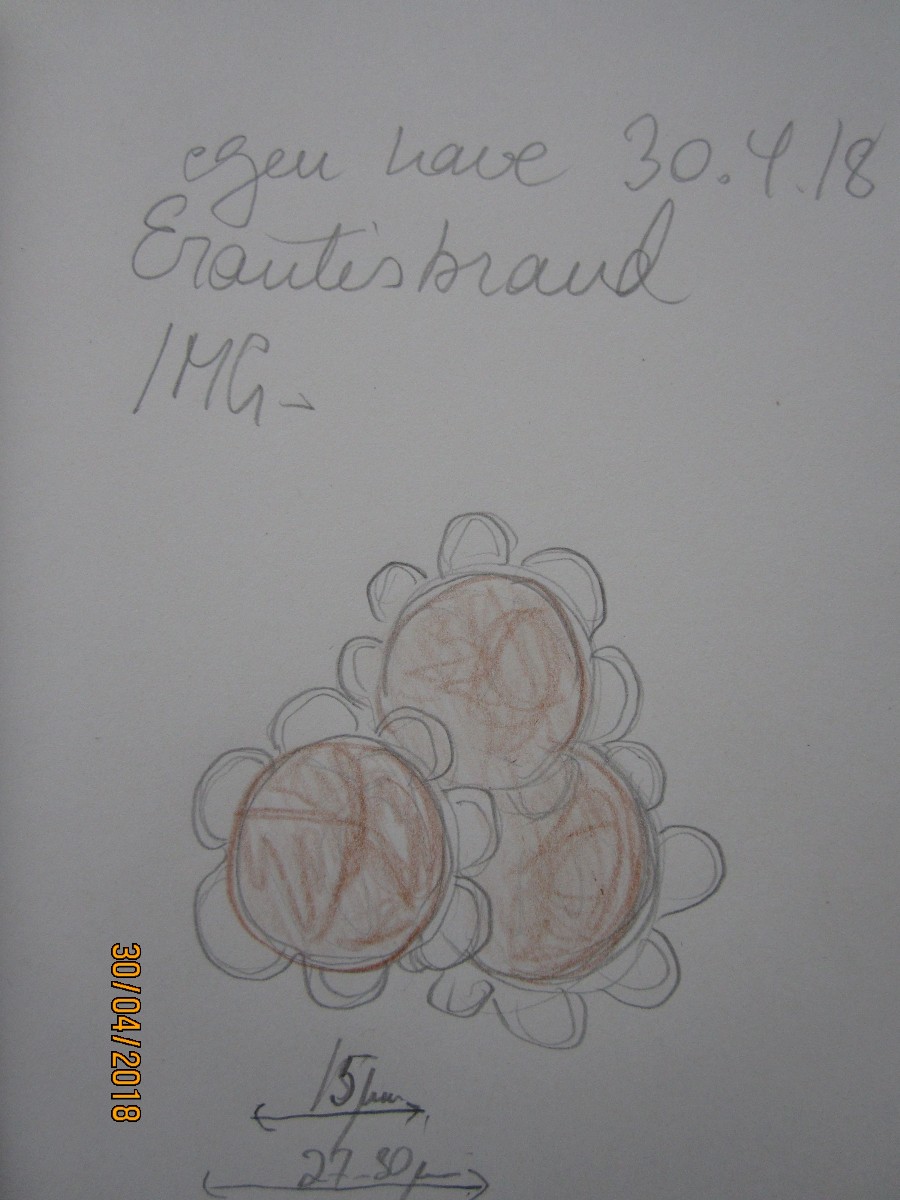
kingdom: Fungi
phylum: Basidiomycota
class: Ustilaginomycetes
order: Urocystidales
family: Urocystidaceae
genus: Urocystis
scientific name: Urocystis eranthidis
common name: erantis-brand
